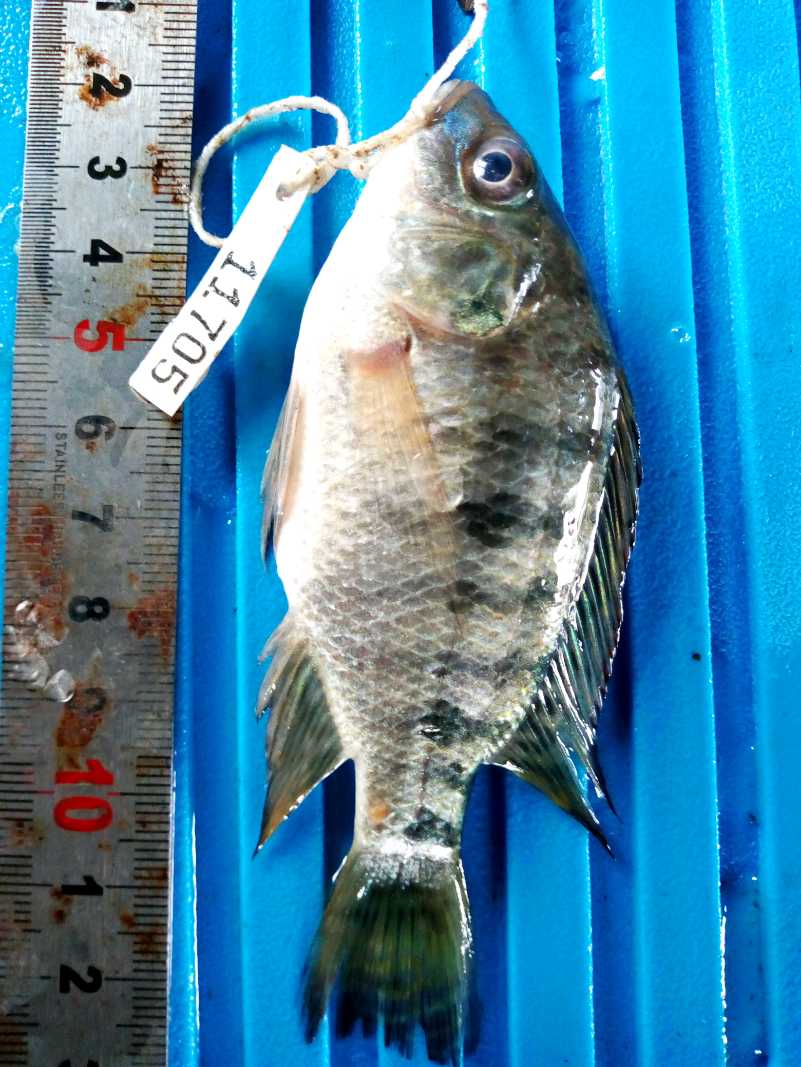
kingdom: Animalia
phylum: Chordata
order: Perciformes
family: Cichlidae
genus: Oreochromis
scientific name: Oreochromis spilurus
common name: Sabaki tilapia
